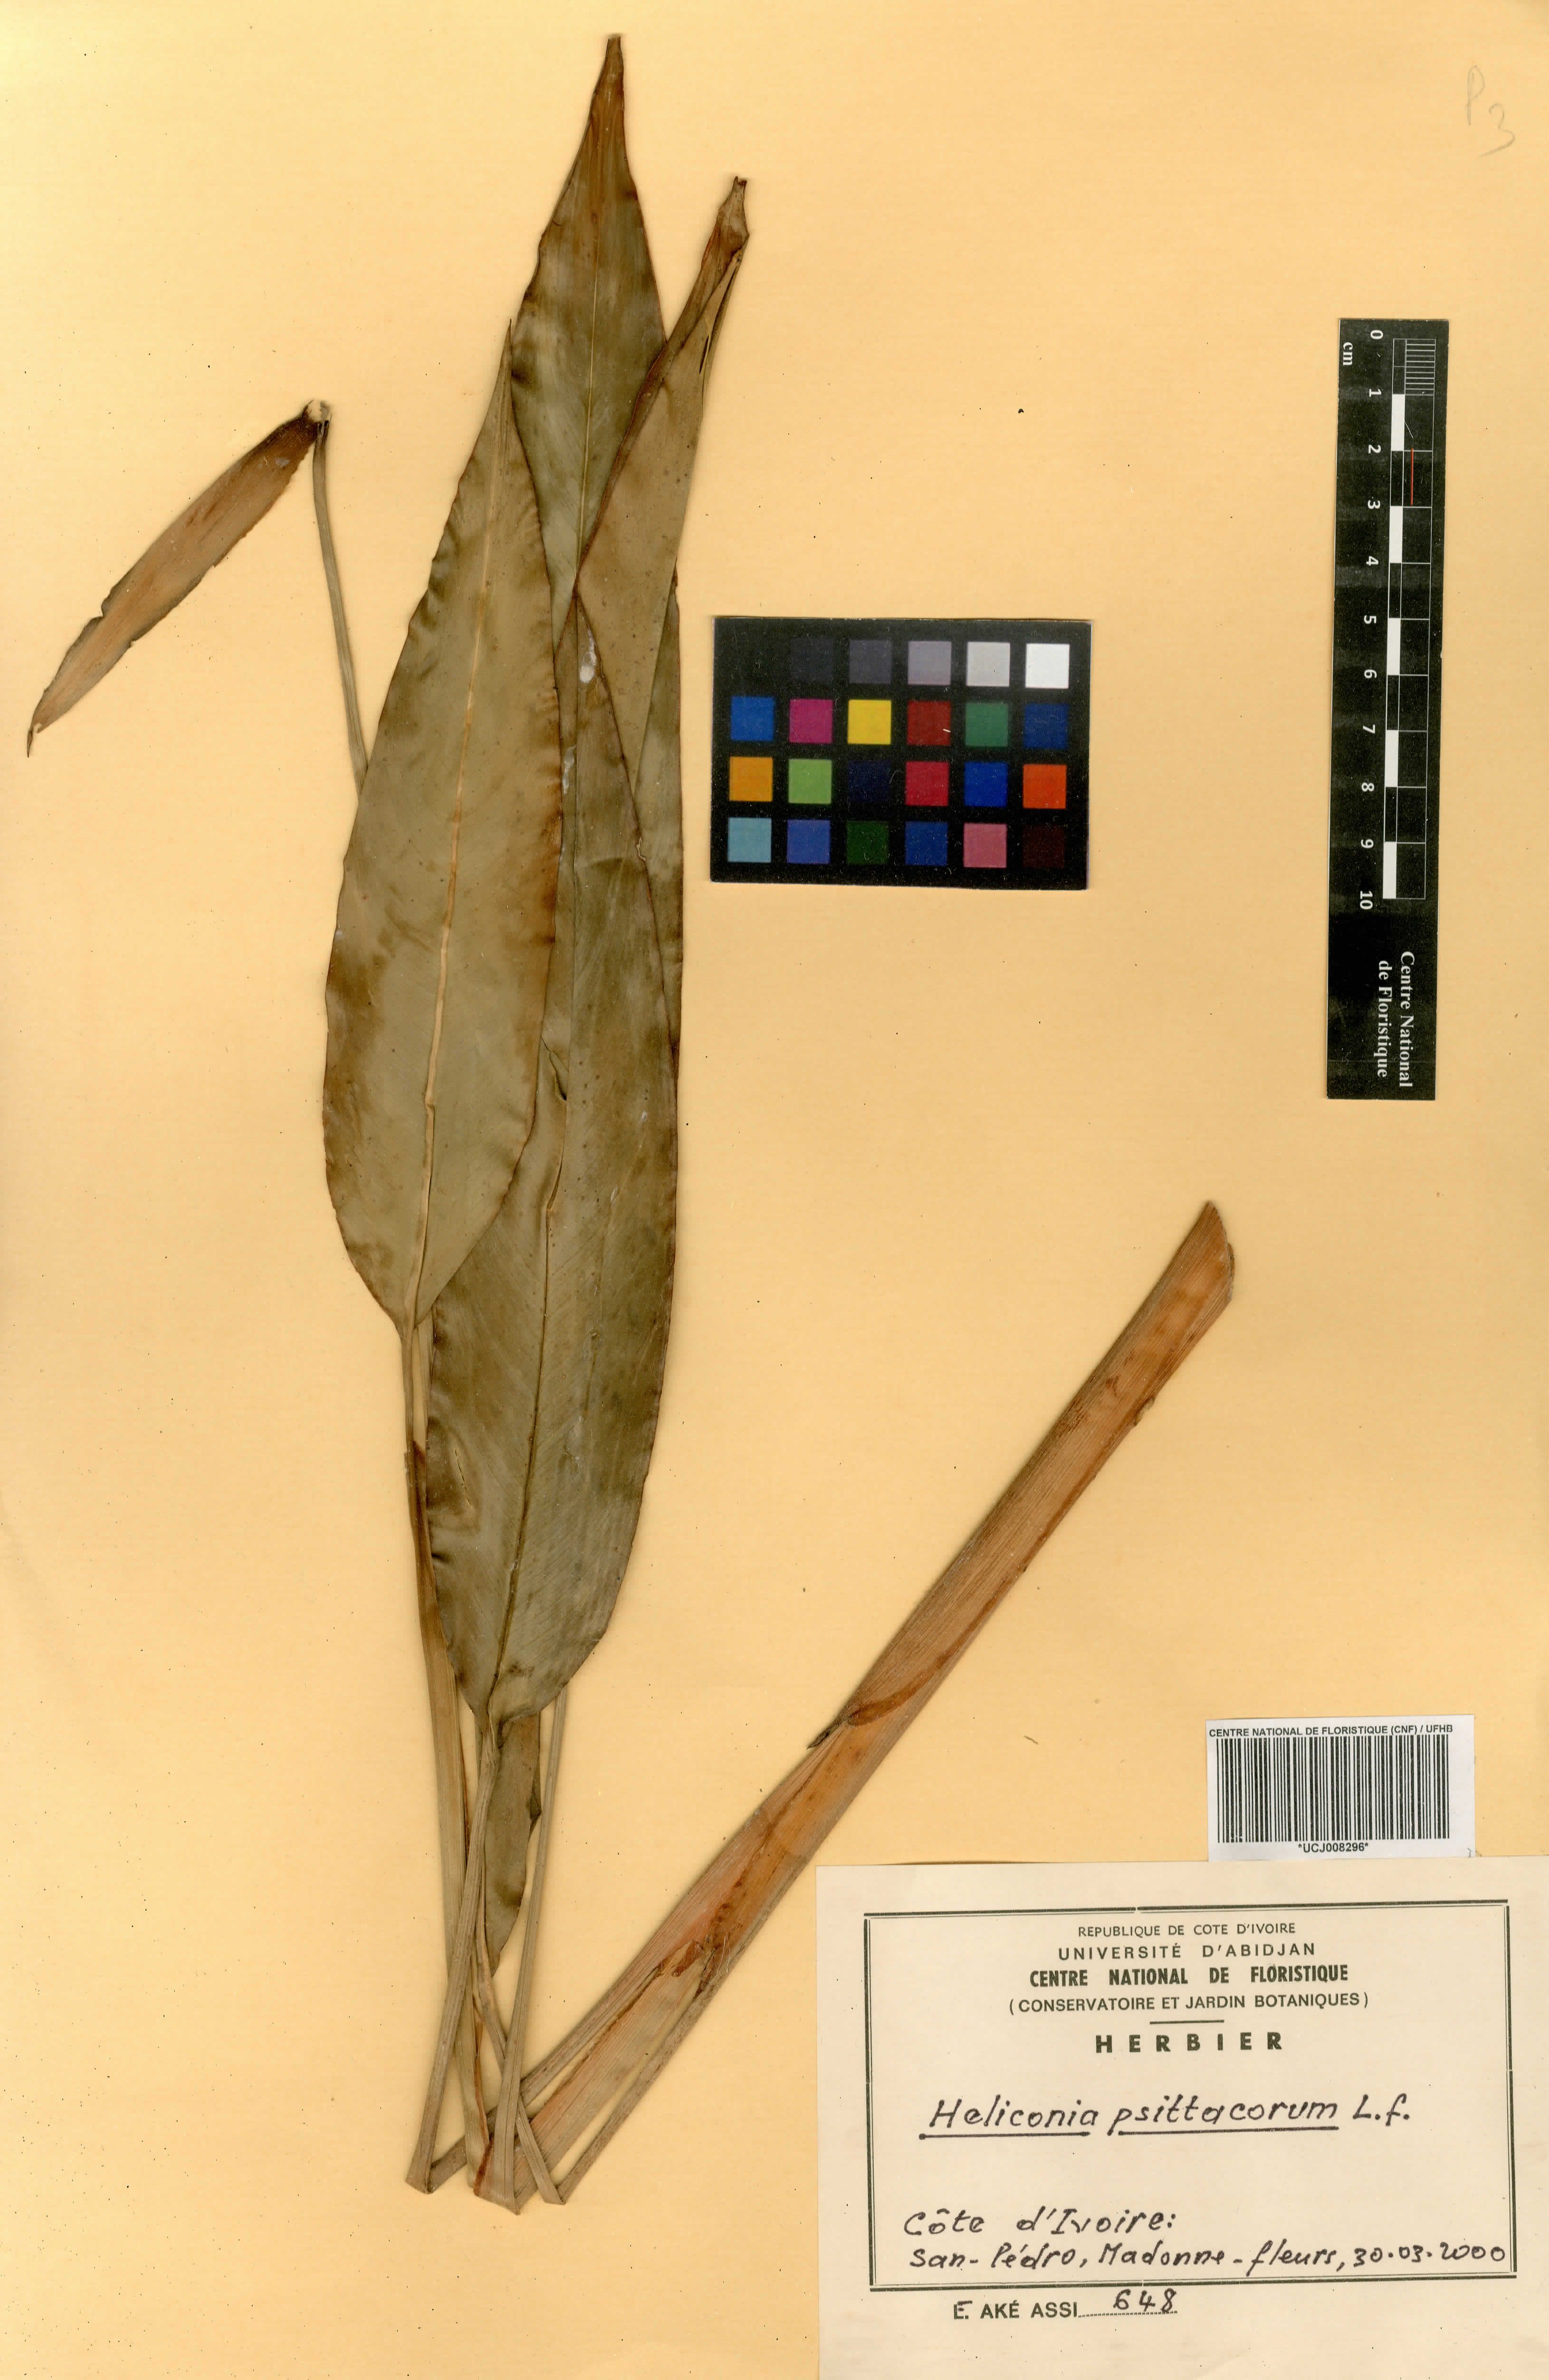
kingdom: Plantae
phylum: Tracheophyta
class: Liliopsida
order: Zingiberales
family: Heliconiaceae
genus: Heliconia
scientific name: Heliconia psittacorum
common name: Parrot's-flower
